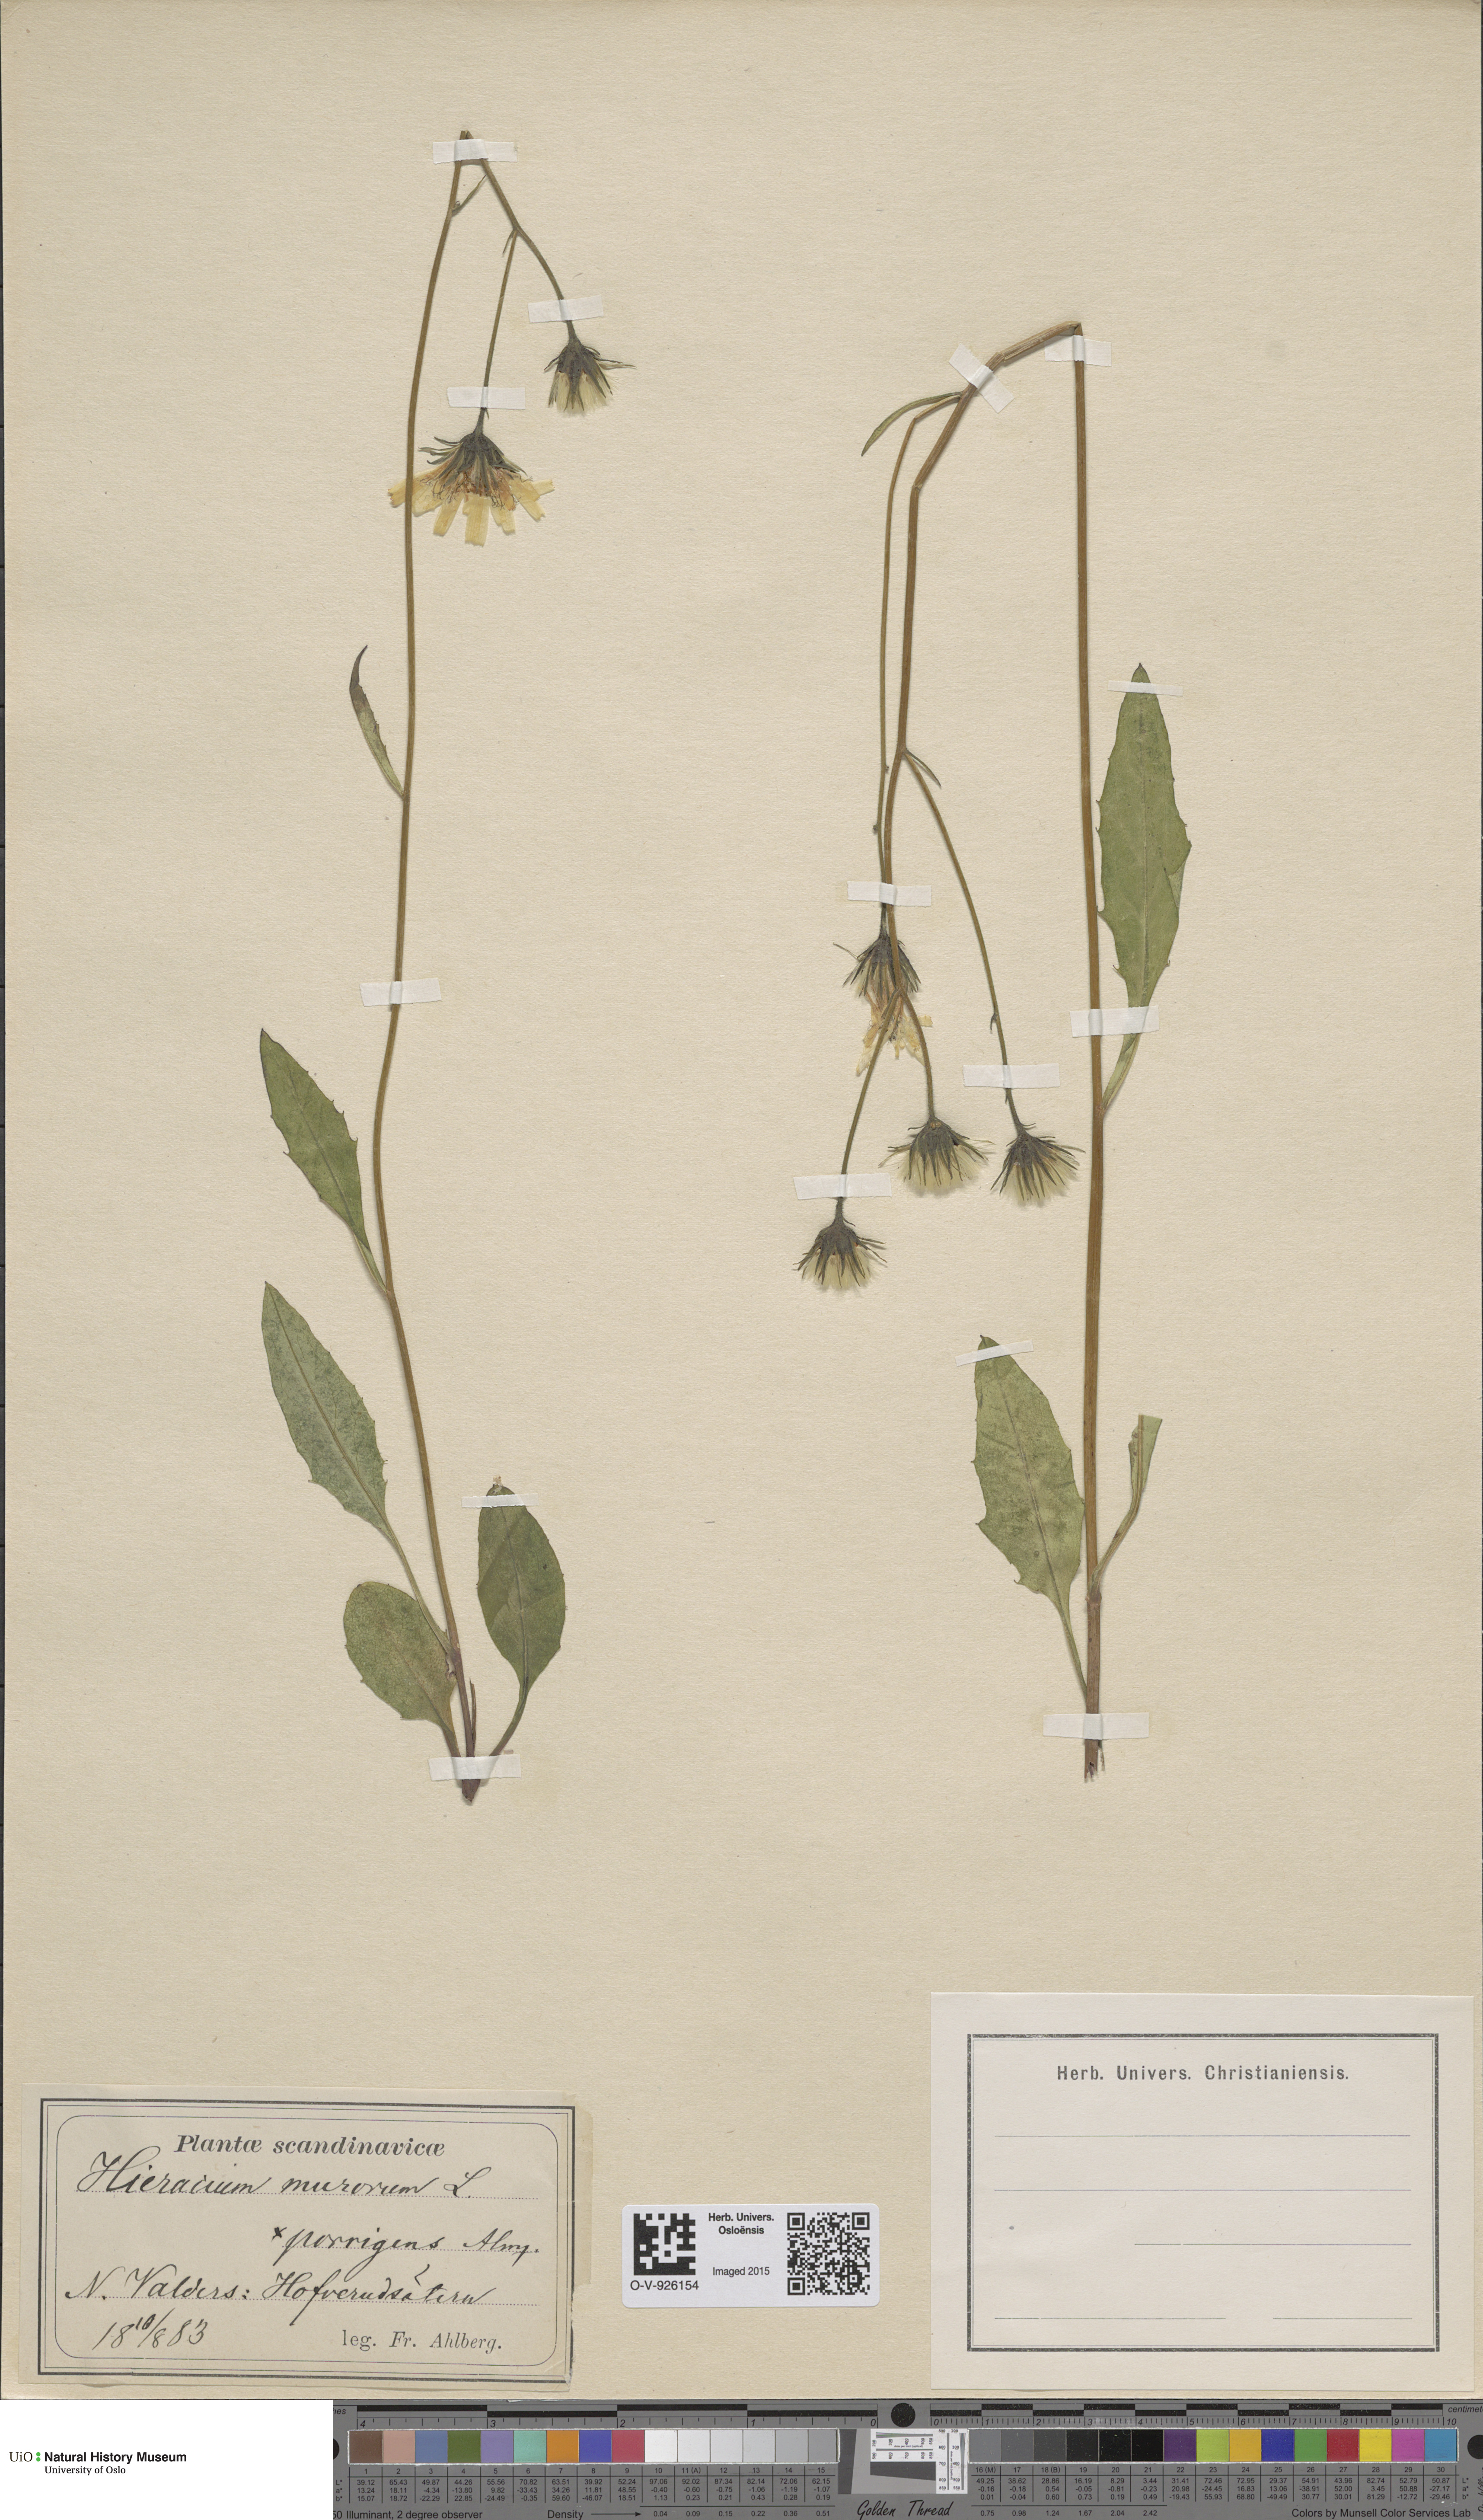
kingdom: Plantae
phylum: Tracheophyta
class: Magnoliopsida
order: Asterales
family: Asteraceae
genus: Hieracium
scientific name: Hieracium murorum
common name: Wall hawkweed
